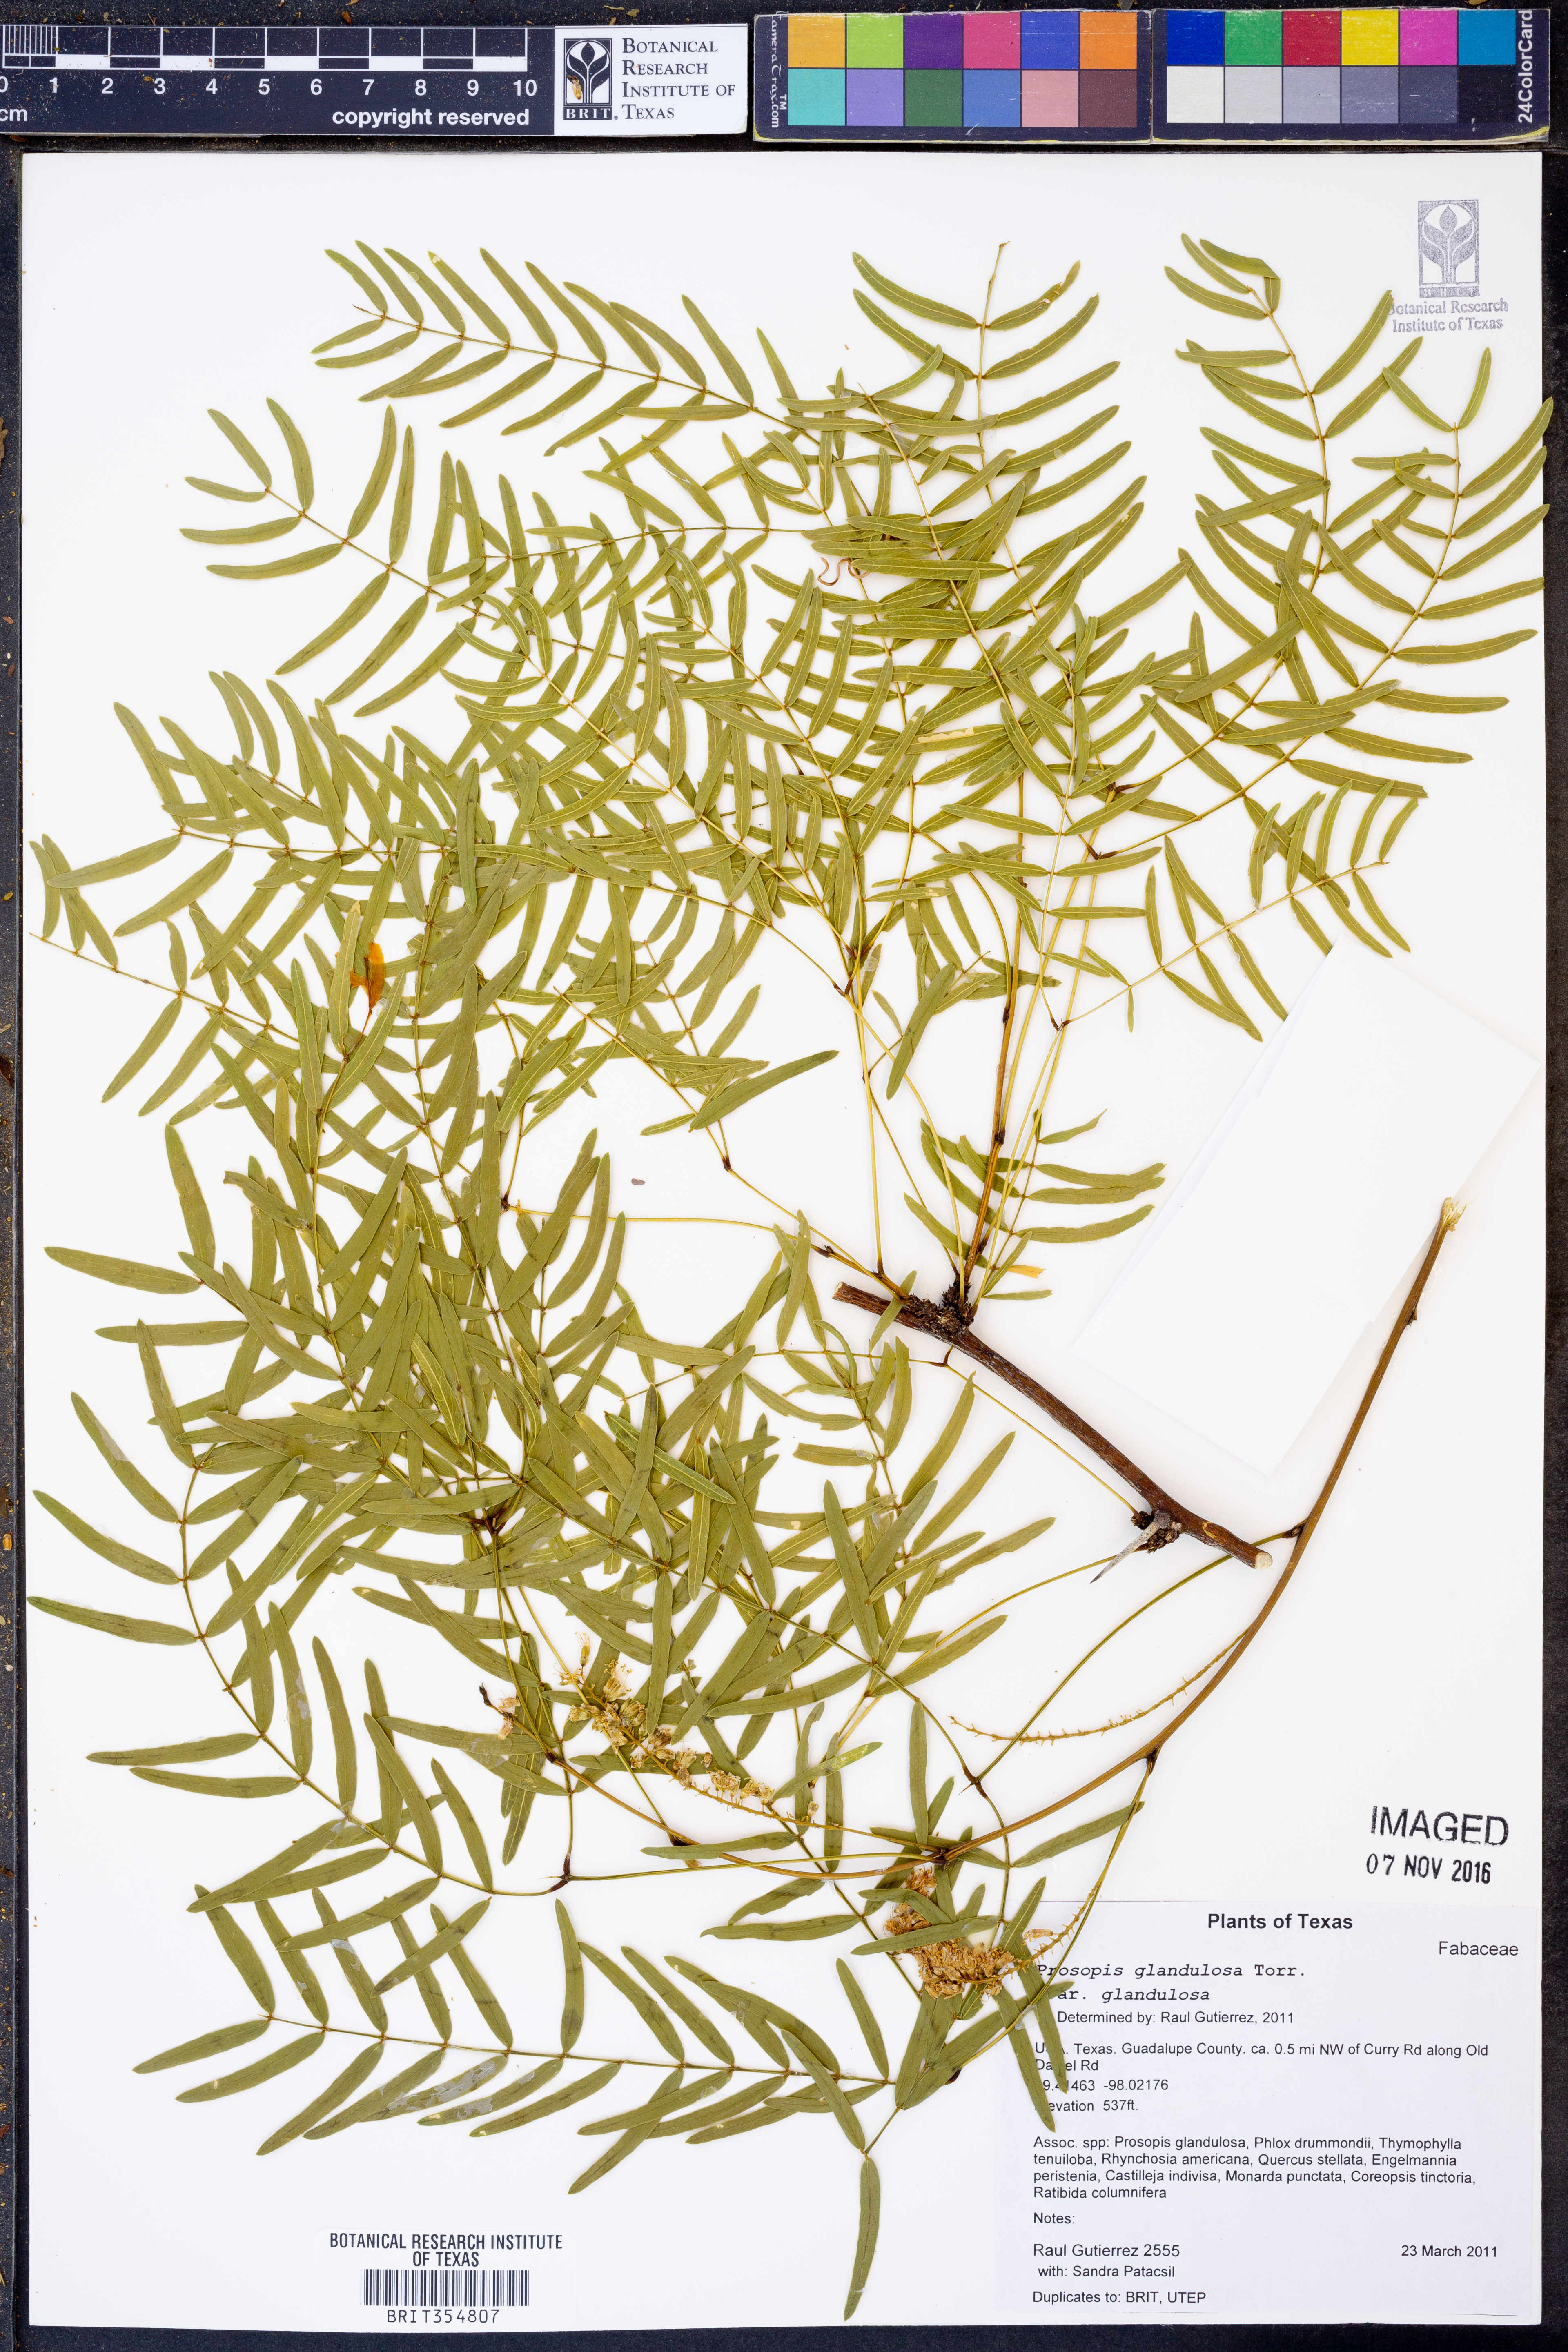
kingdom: Plantae
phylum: Tracheophyta
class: Magnoliopsida
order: Fabales
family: Fabaceae
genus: Prosopis
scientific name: Prosopis glandulosa
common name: Honey mesquite
